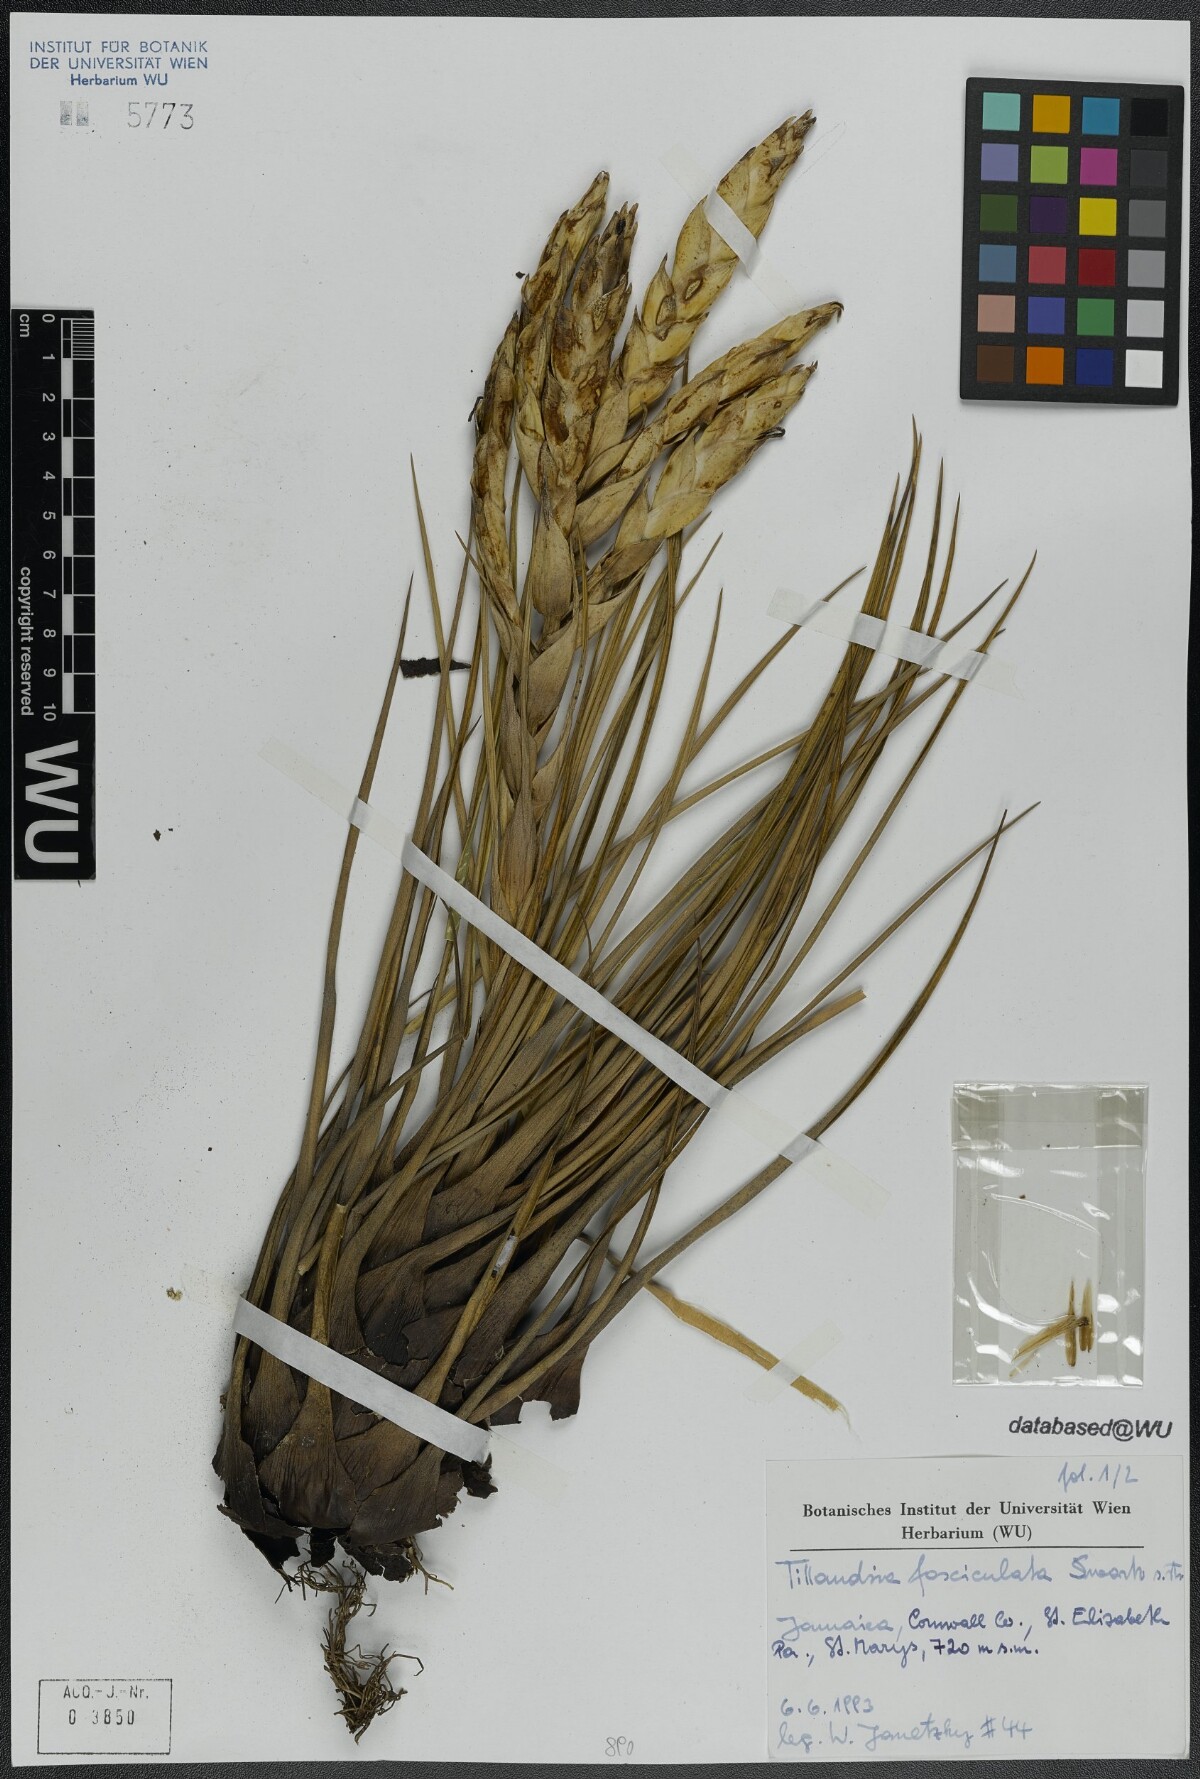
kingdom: Plantae
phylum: Tracheophyta
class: Liliopsida
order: Poales
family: Bromeliaceae
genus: Tillandsia
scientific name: Tillandsia fasciculata
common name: Giant airplant
